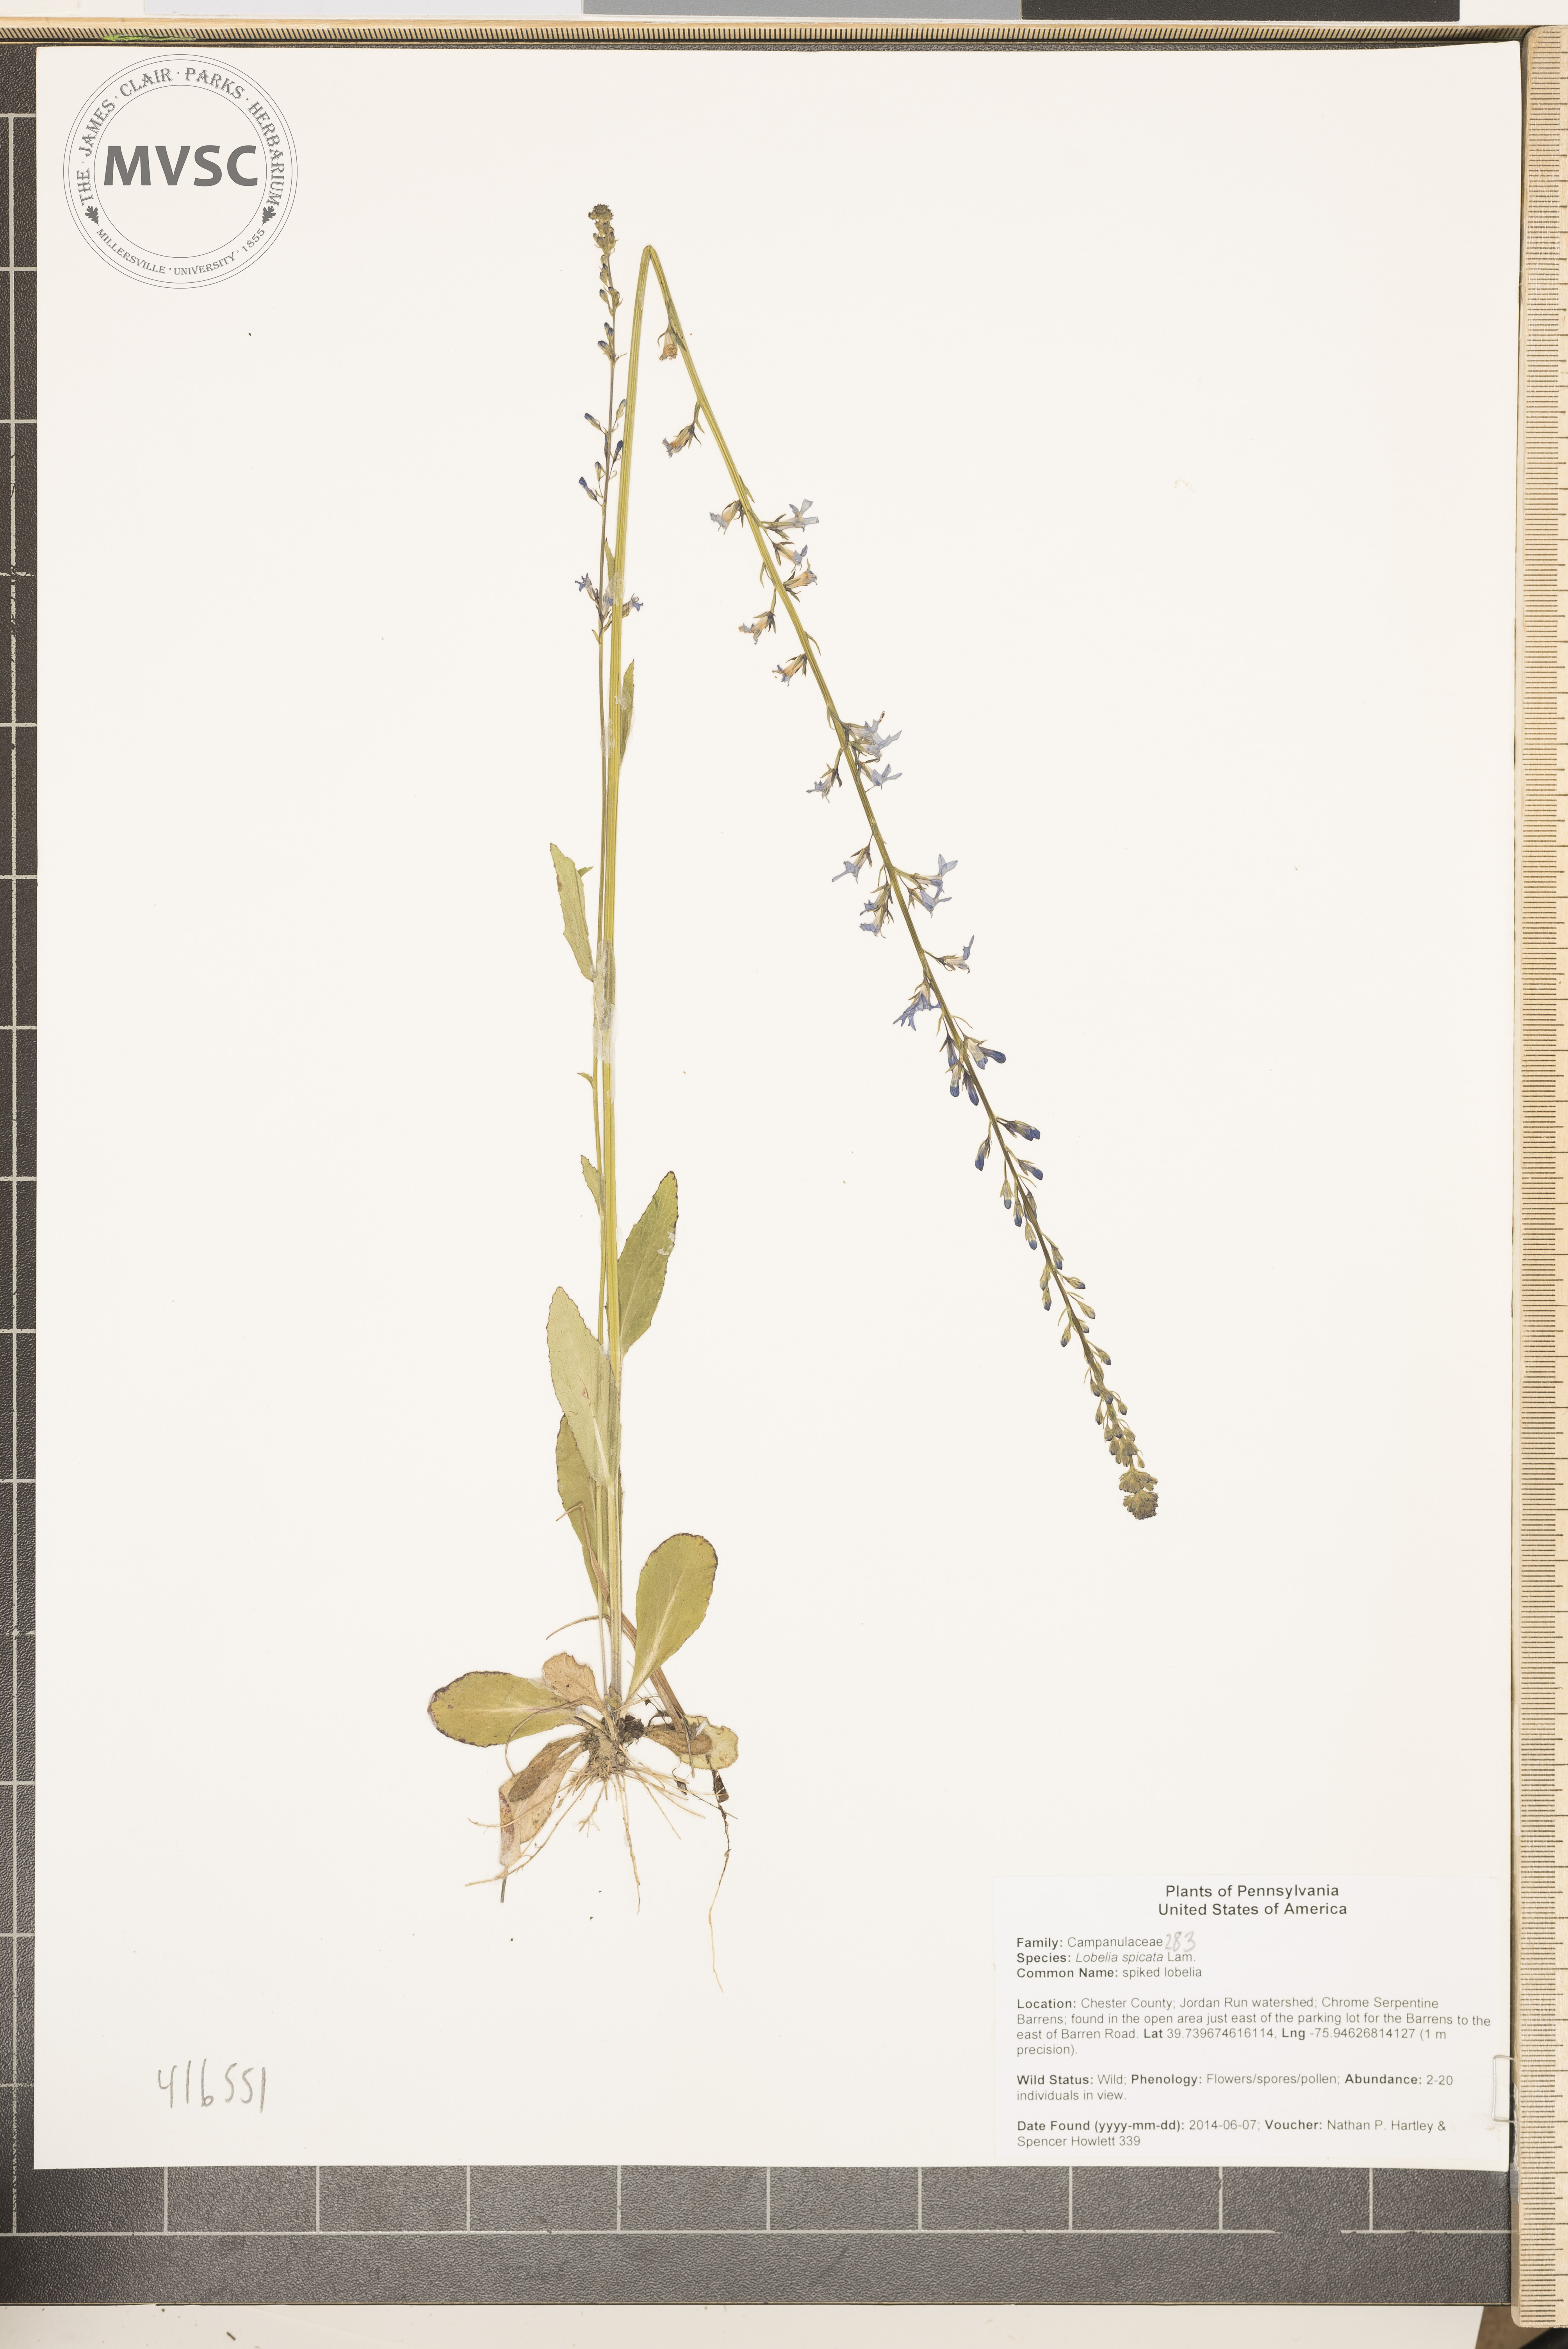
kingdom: Plantae
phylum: Tracheophyta
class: Magnoliopsida
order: Asterales
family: Campanulaceae
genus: Lobelia
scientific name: Lobelia spicata
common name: spiked lobelia
